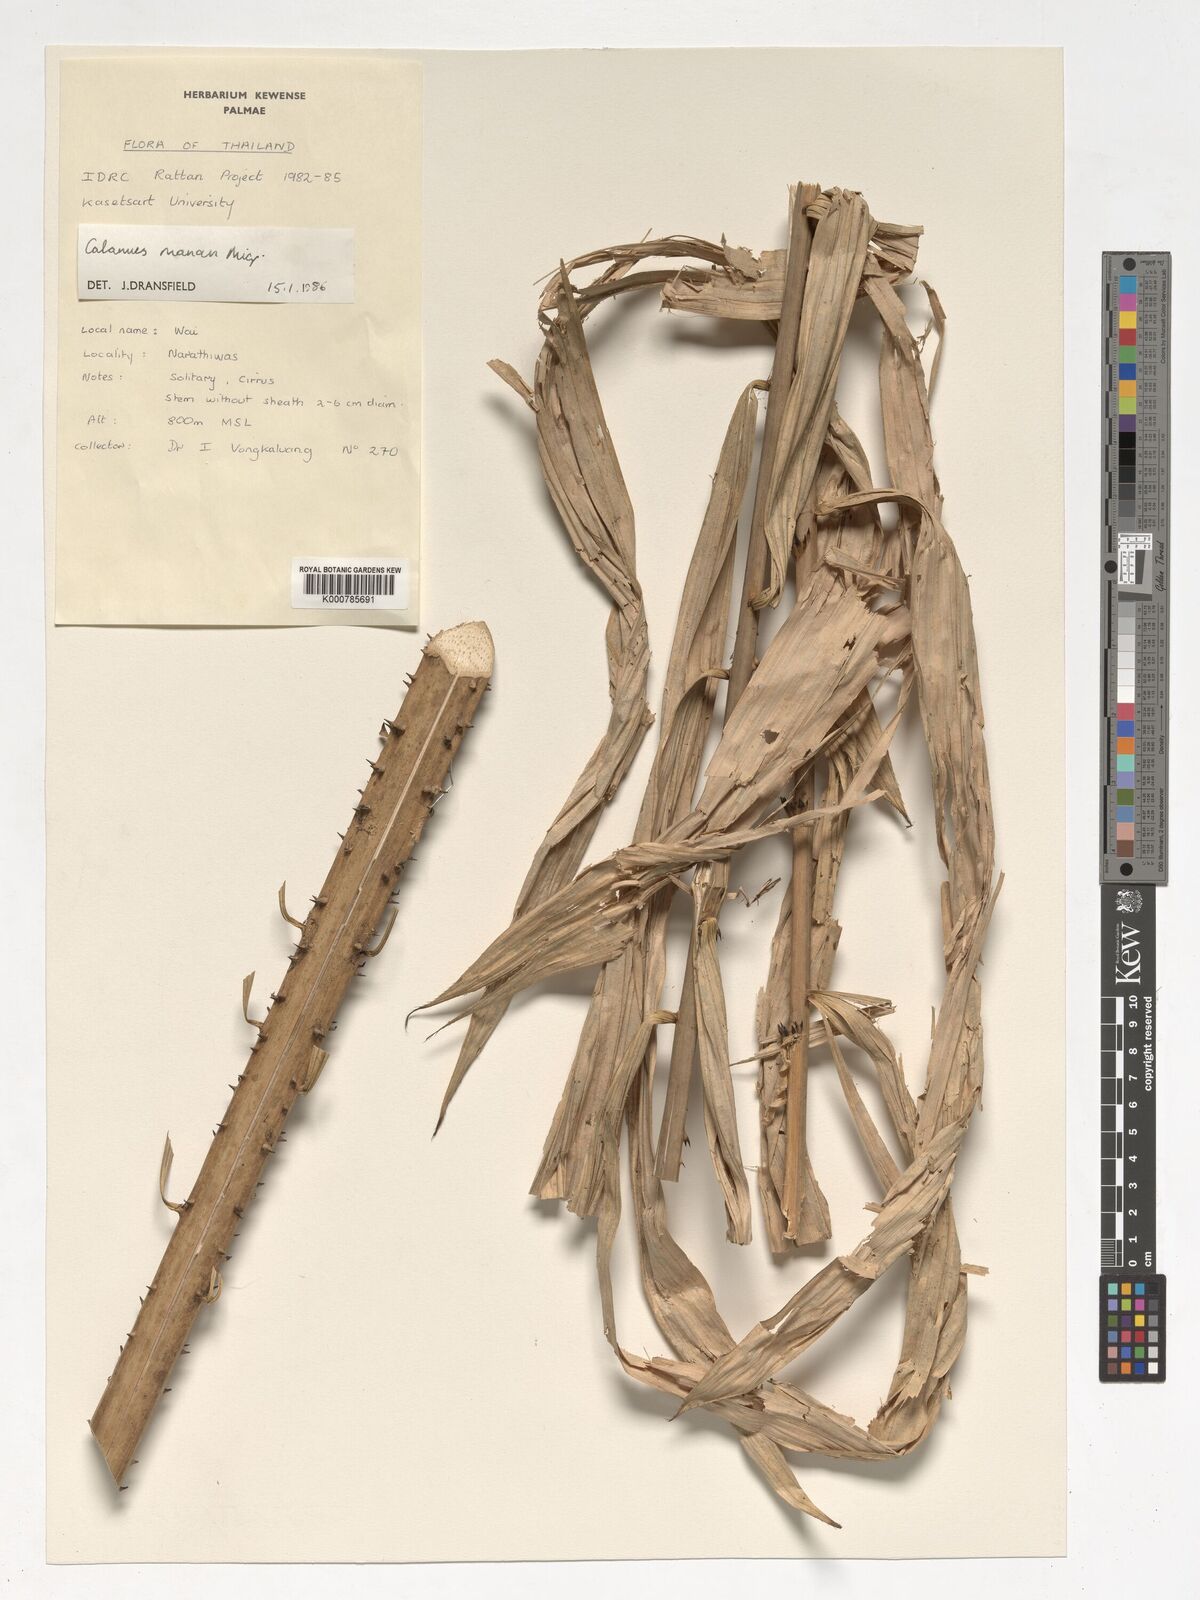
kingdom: Plantae
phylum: Tracheophyta
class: Liliopsida
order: Arecales
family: Arecaceae
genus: Calamus
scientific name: Calamus manan
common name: Rattan
